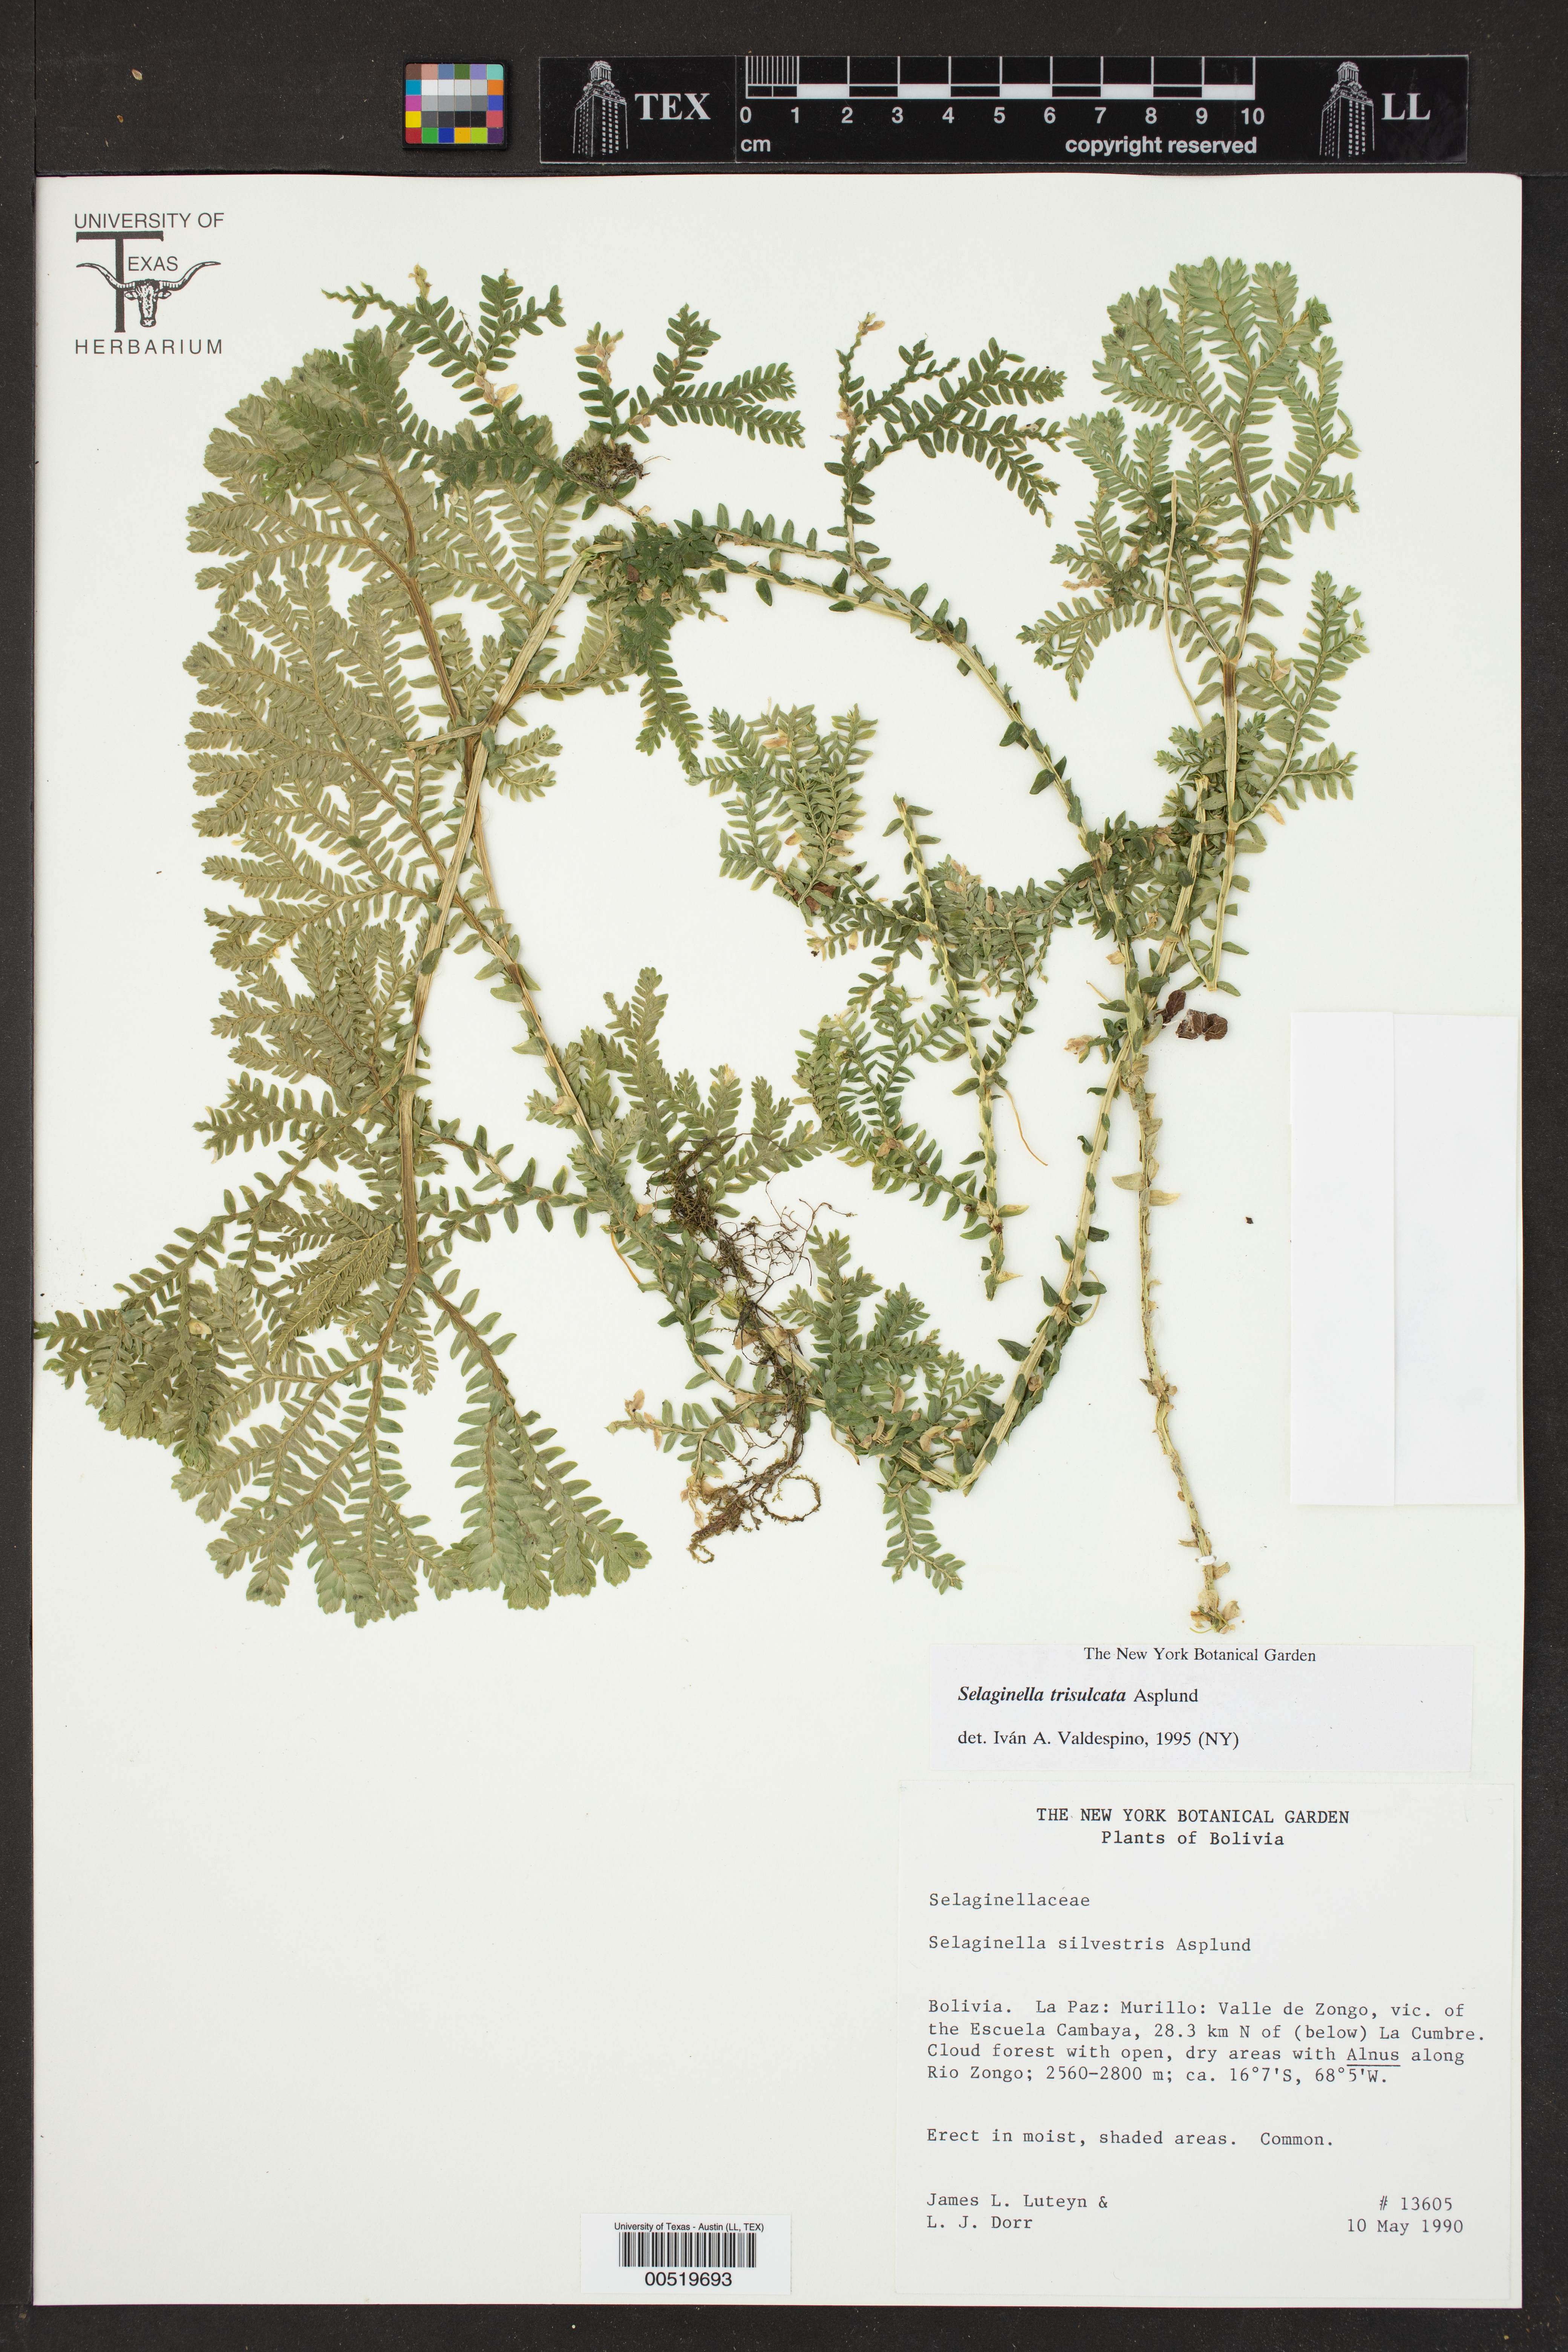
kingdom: Plantae
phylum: Tracheophyta
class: Lycopodiopsida
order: Selaginellales
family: Selaginellaceae
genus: Selaginella
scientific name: Selaginella trisulcata
